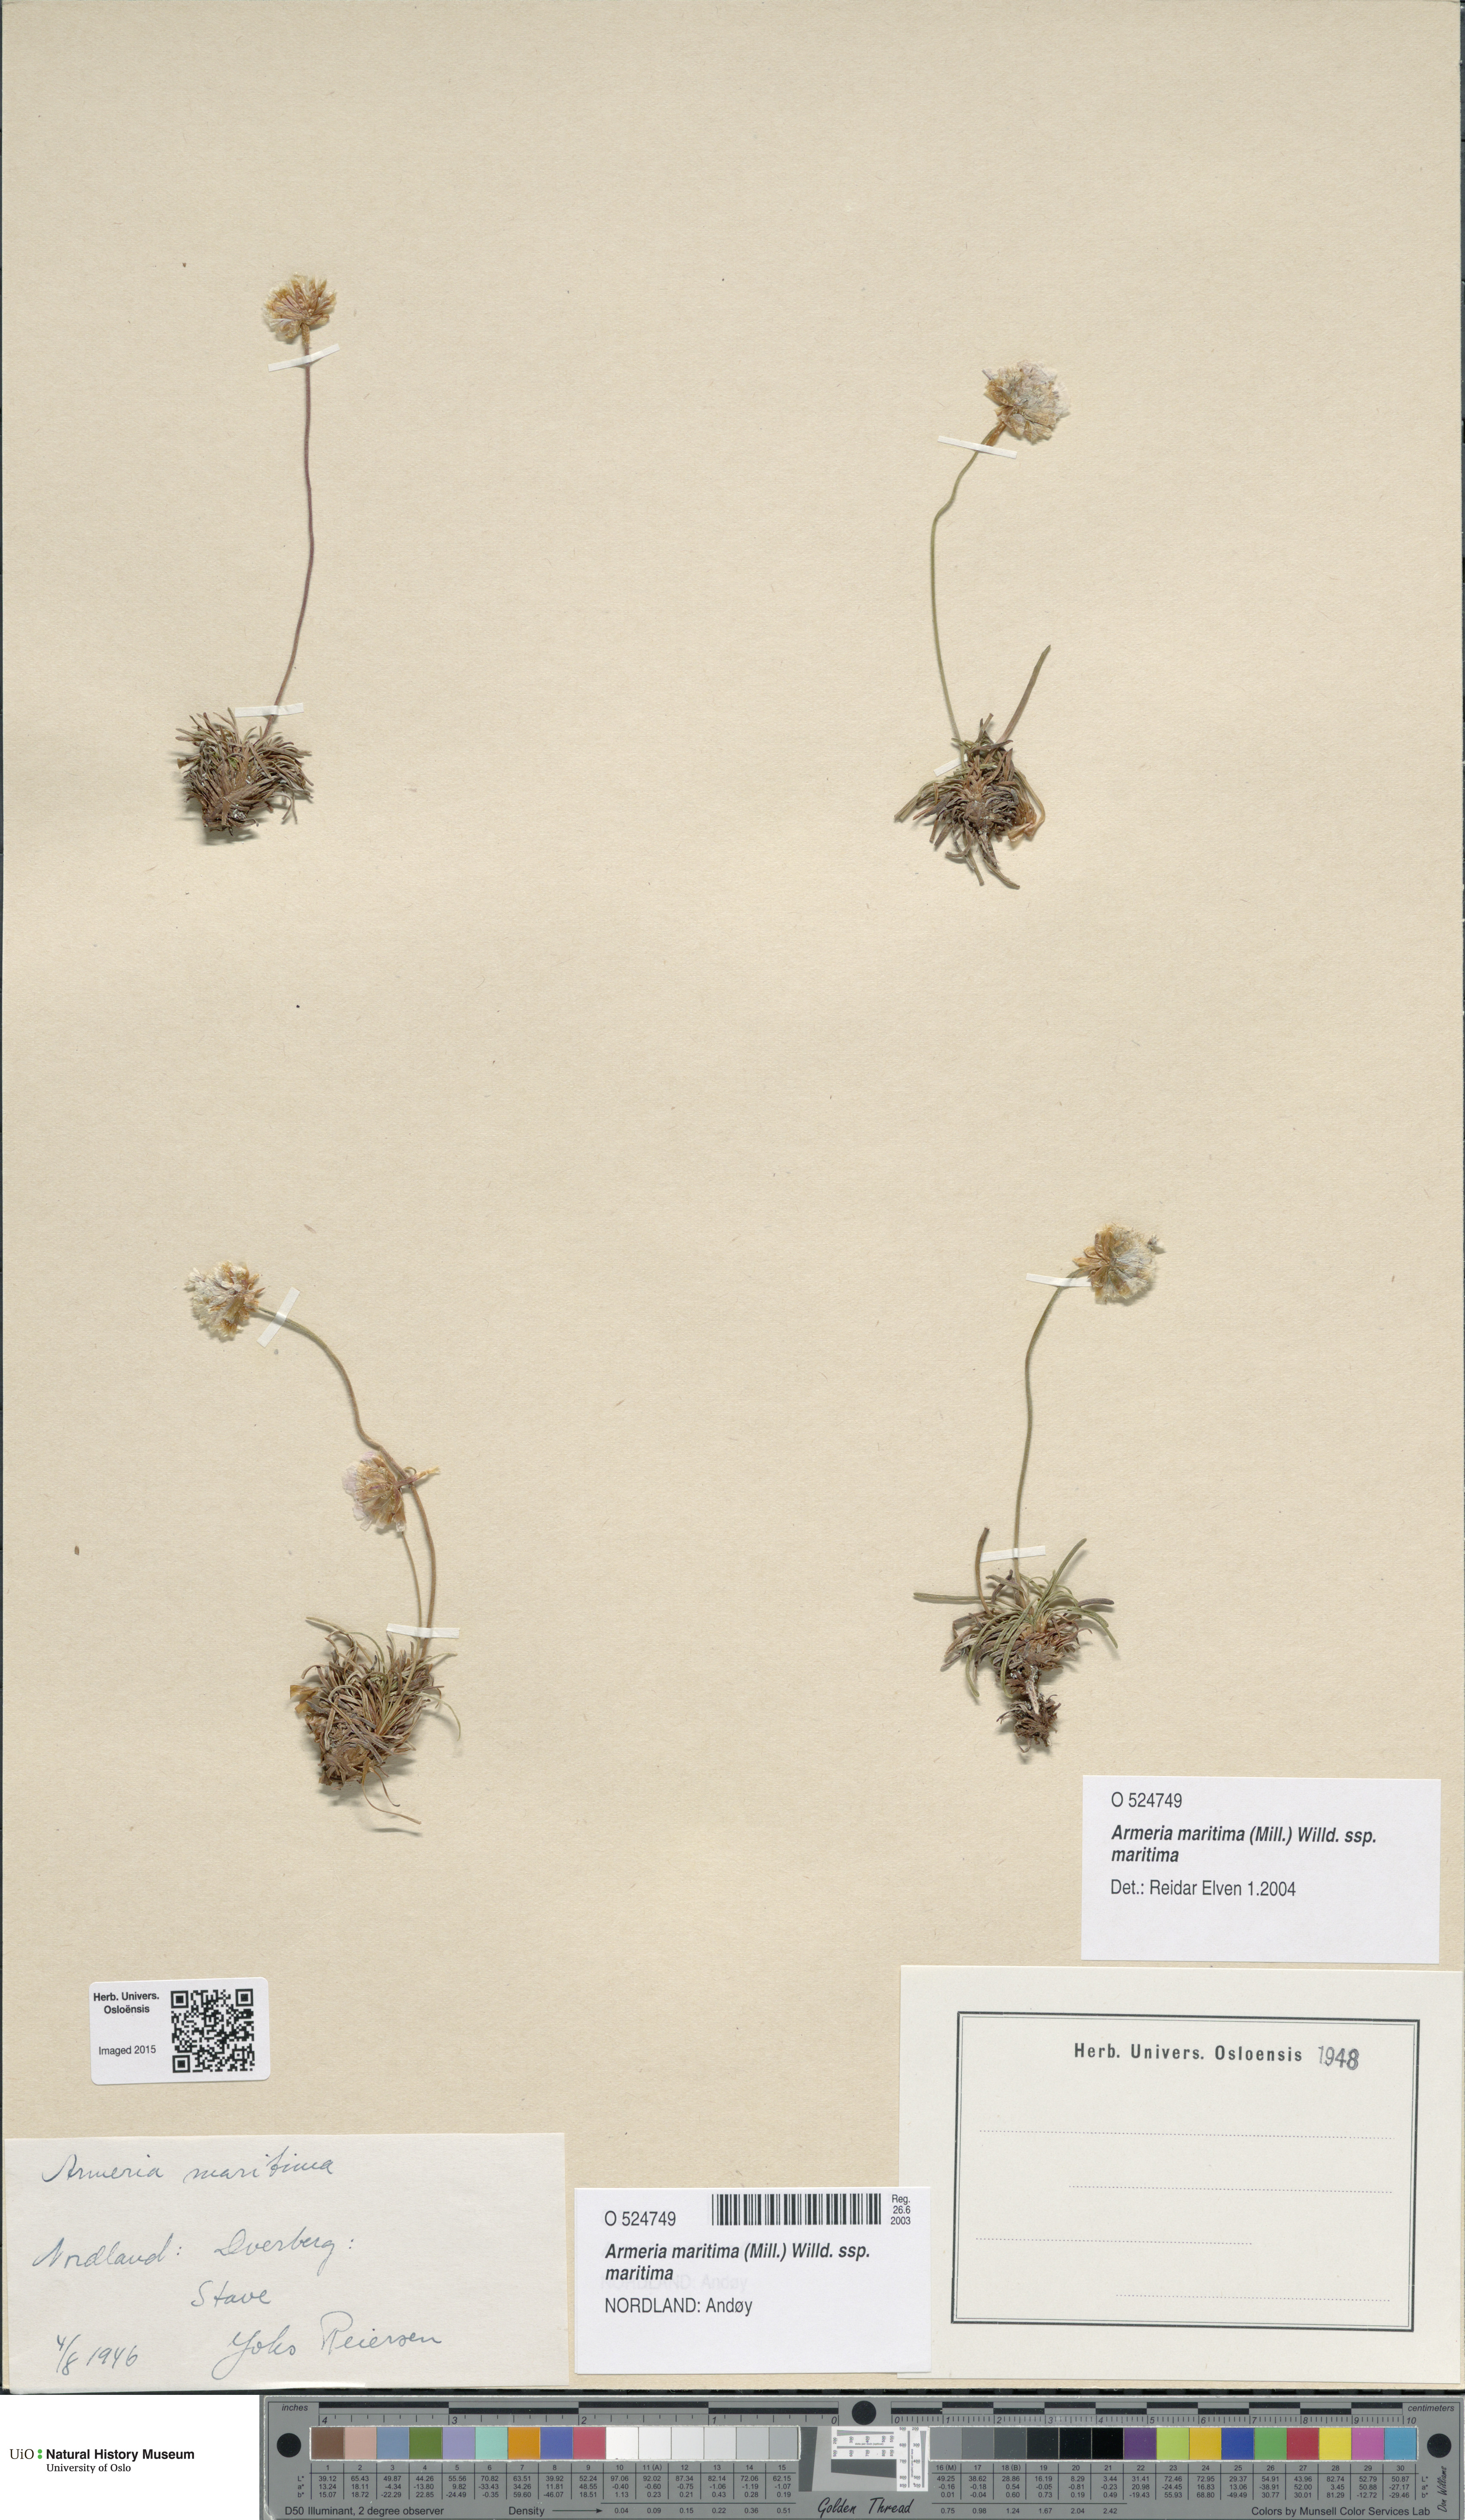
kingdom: Plantae
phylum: Tracheophyta
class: Magnoliopsida
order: Caryophyllales
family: Plumbaginaceae
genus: Armeria
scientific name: Armeria maritima
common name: Thrift
